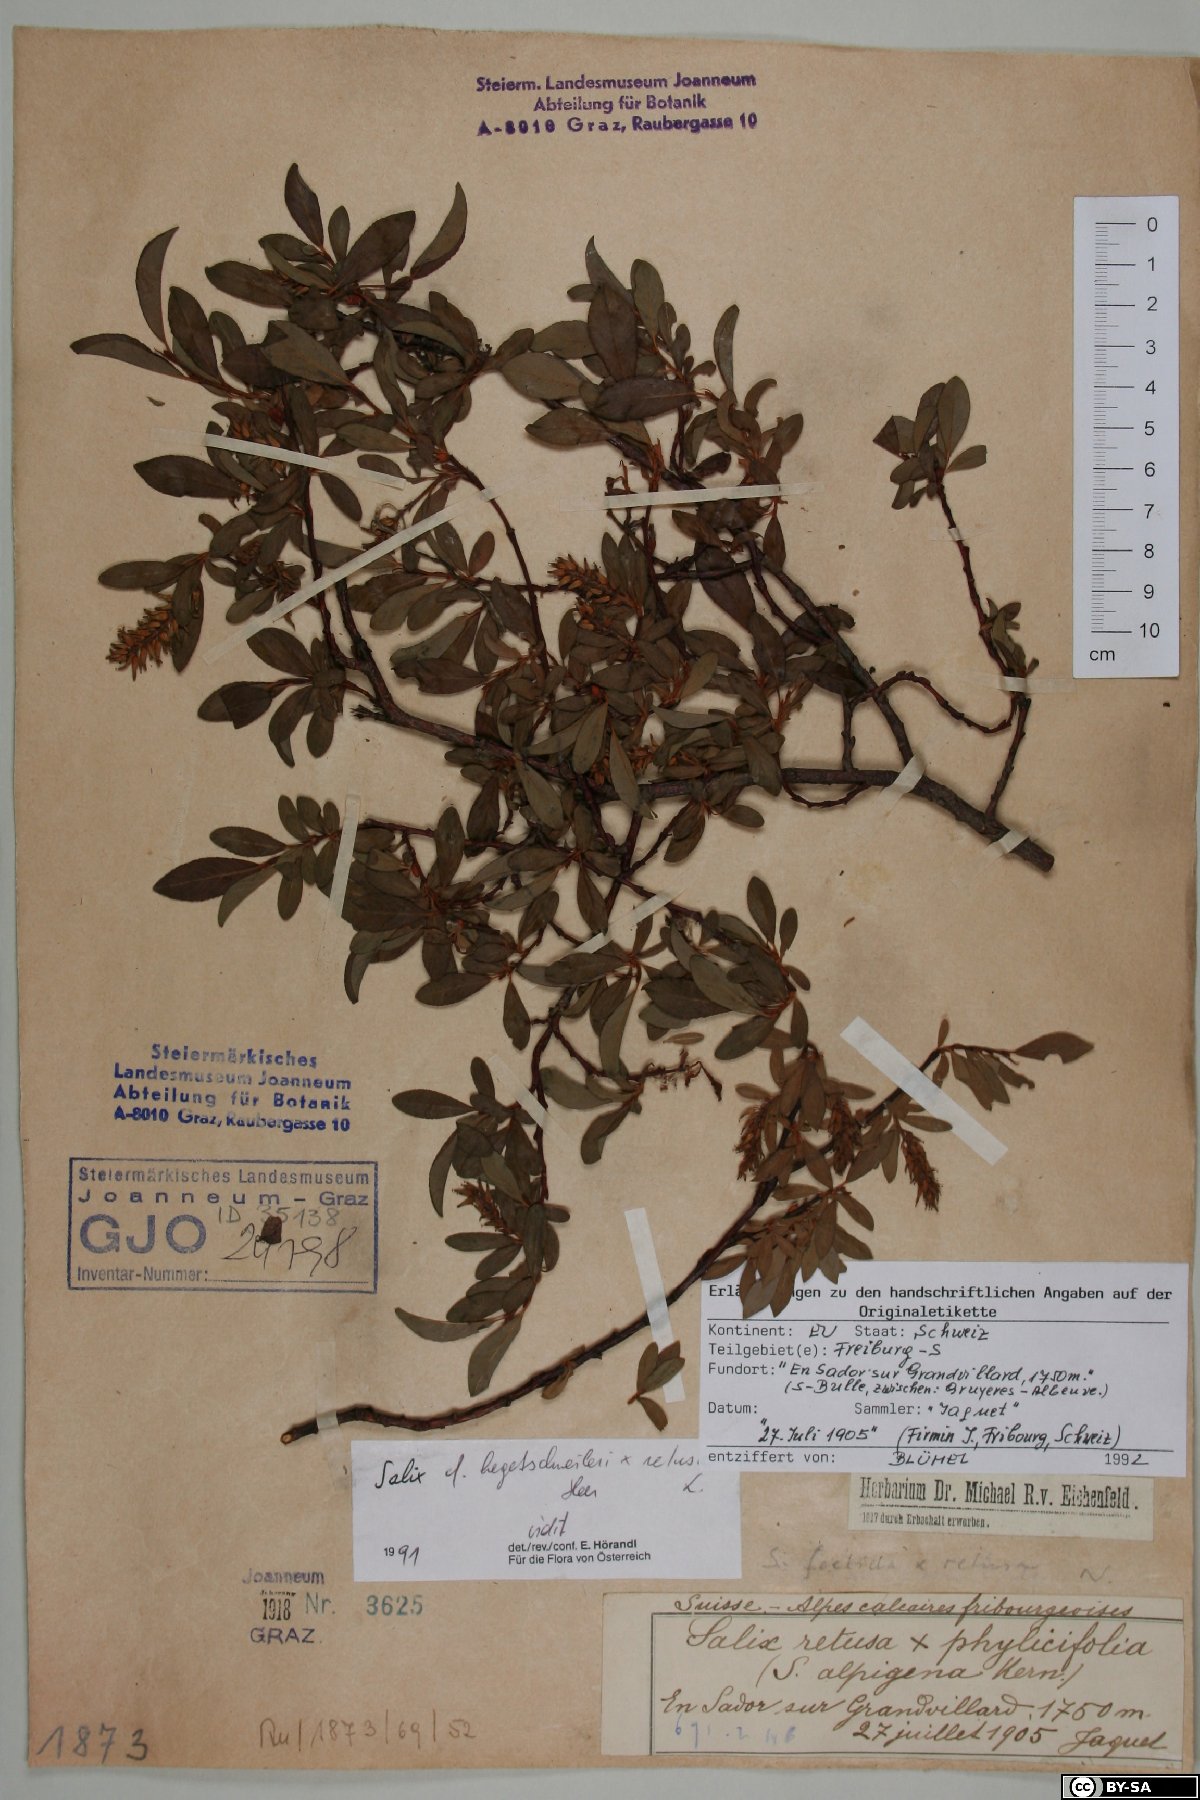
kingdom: Plantae
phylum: Tracheophyta
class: Magnoliopsida
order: Malpighiales
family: Salicaceae
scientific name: Salicaceae
